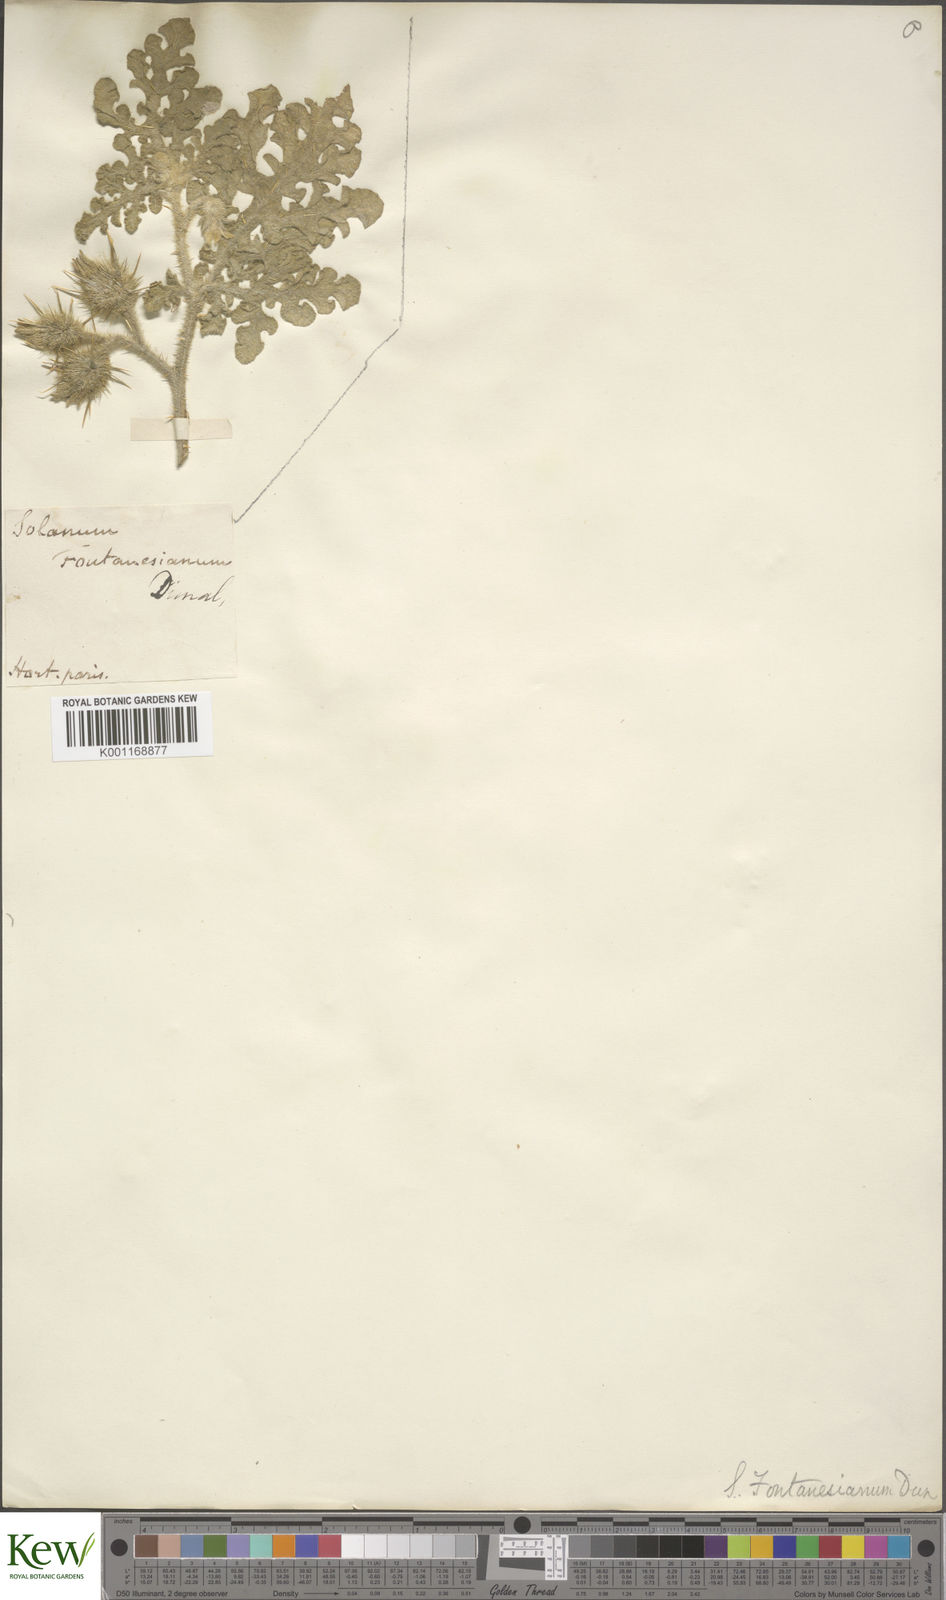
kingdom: Plantae
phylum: Tracheophyta
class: Magnoliopsida
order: Solanales
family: Solanaceae
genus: Solanum
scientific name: Solanum tectum
